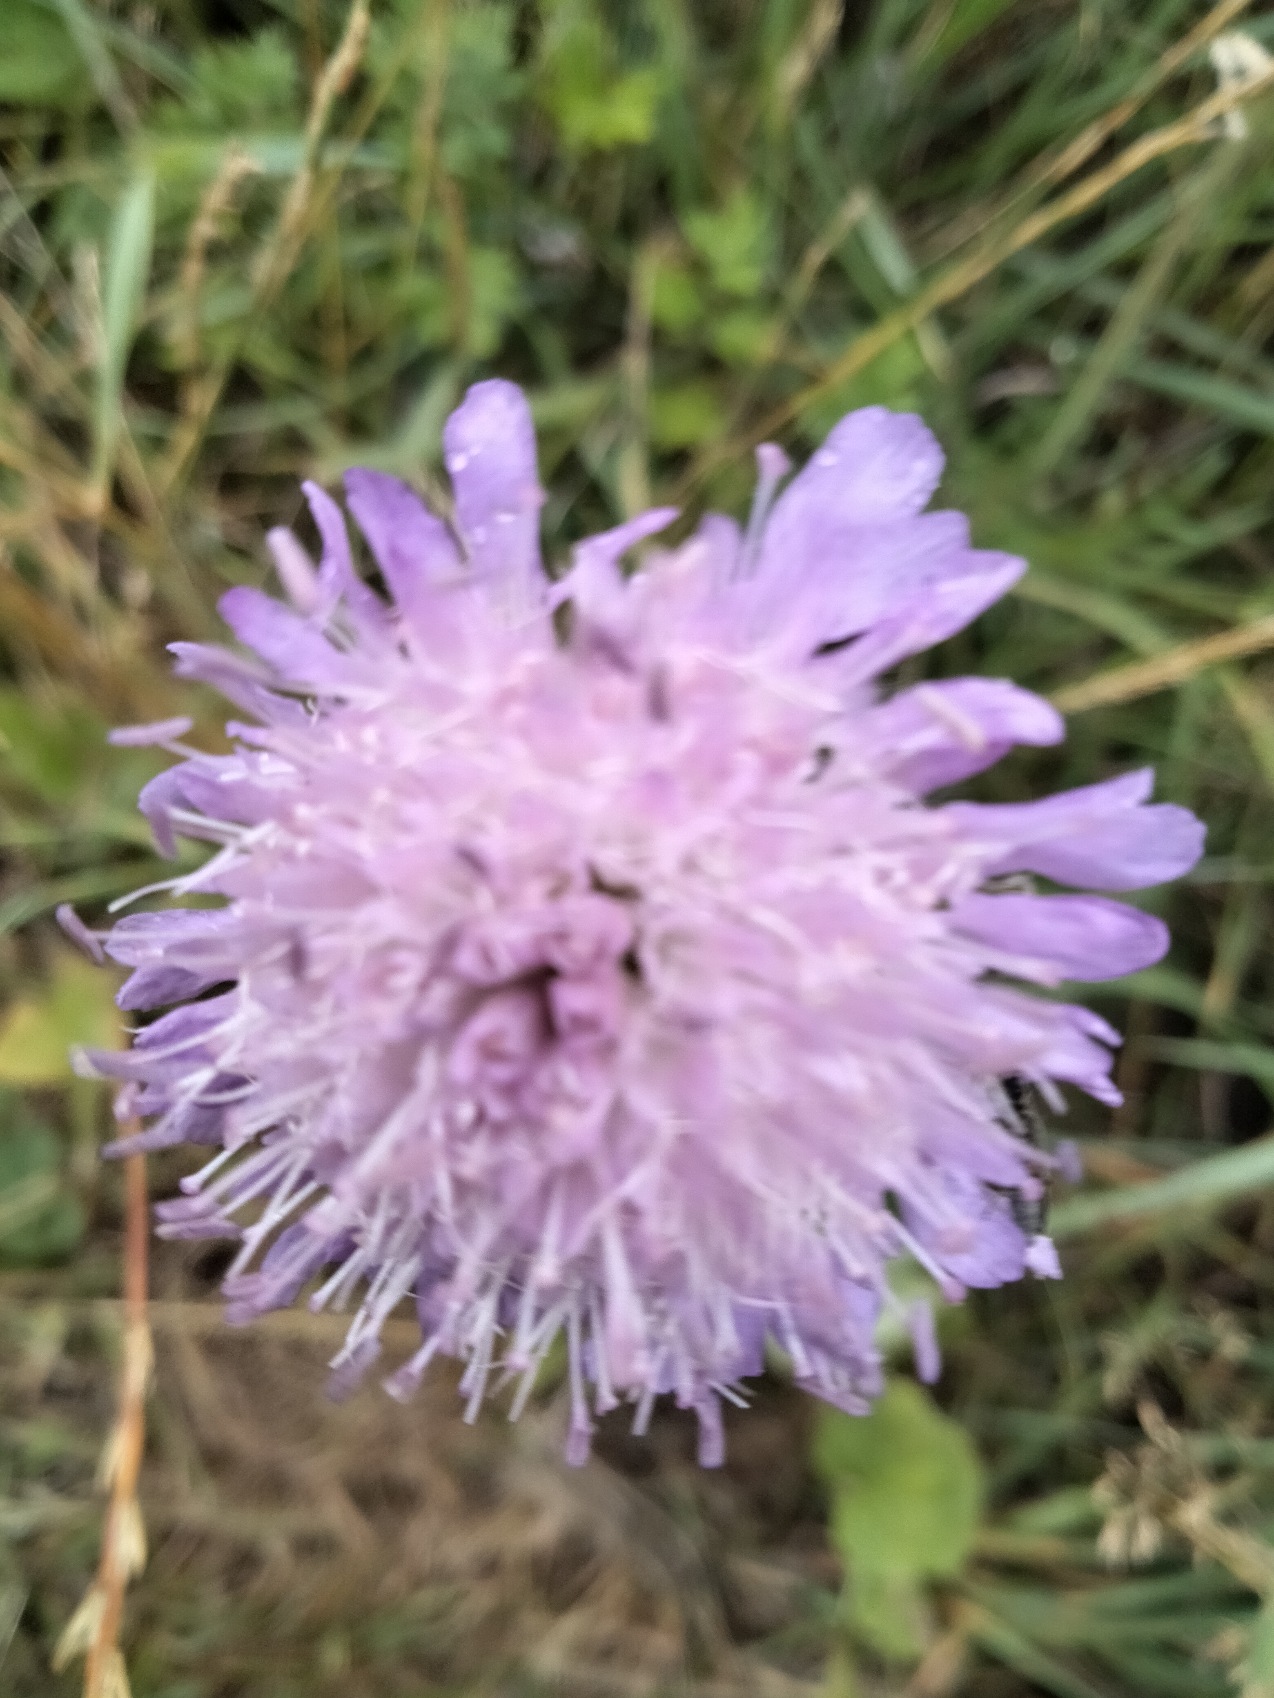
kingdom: Plantae
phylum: Tracheophyta
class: Magnoliopsida
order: Dipsacales
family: Caprifoliaceae
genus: Knautia
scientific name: Knautia
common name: Blåhatslægten
